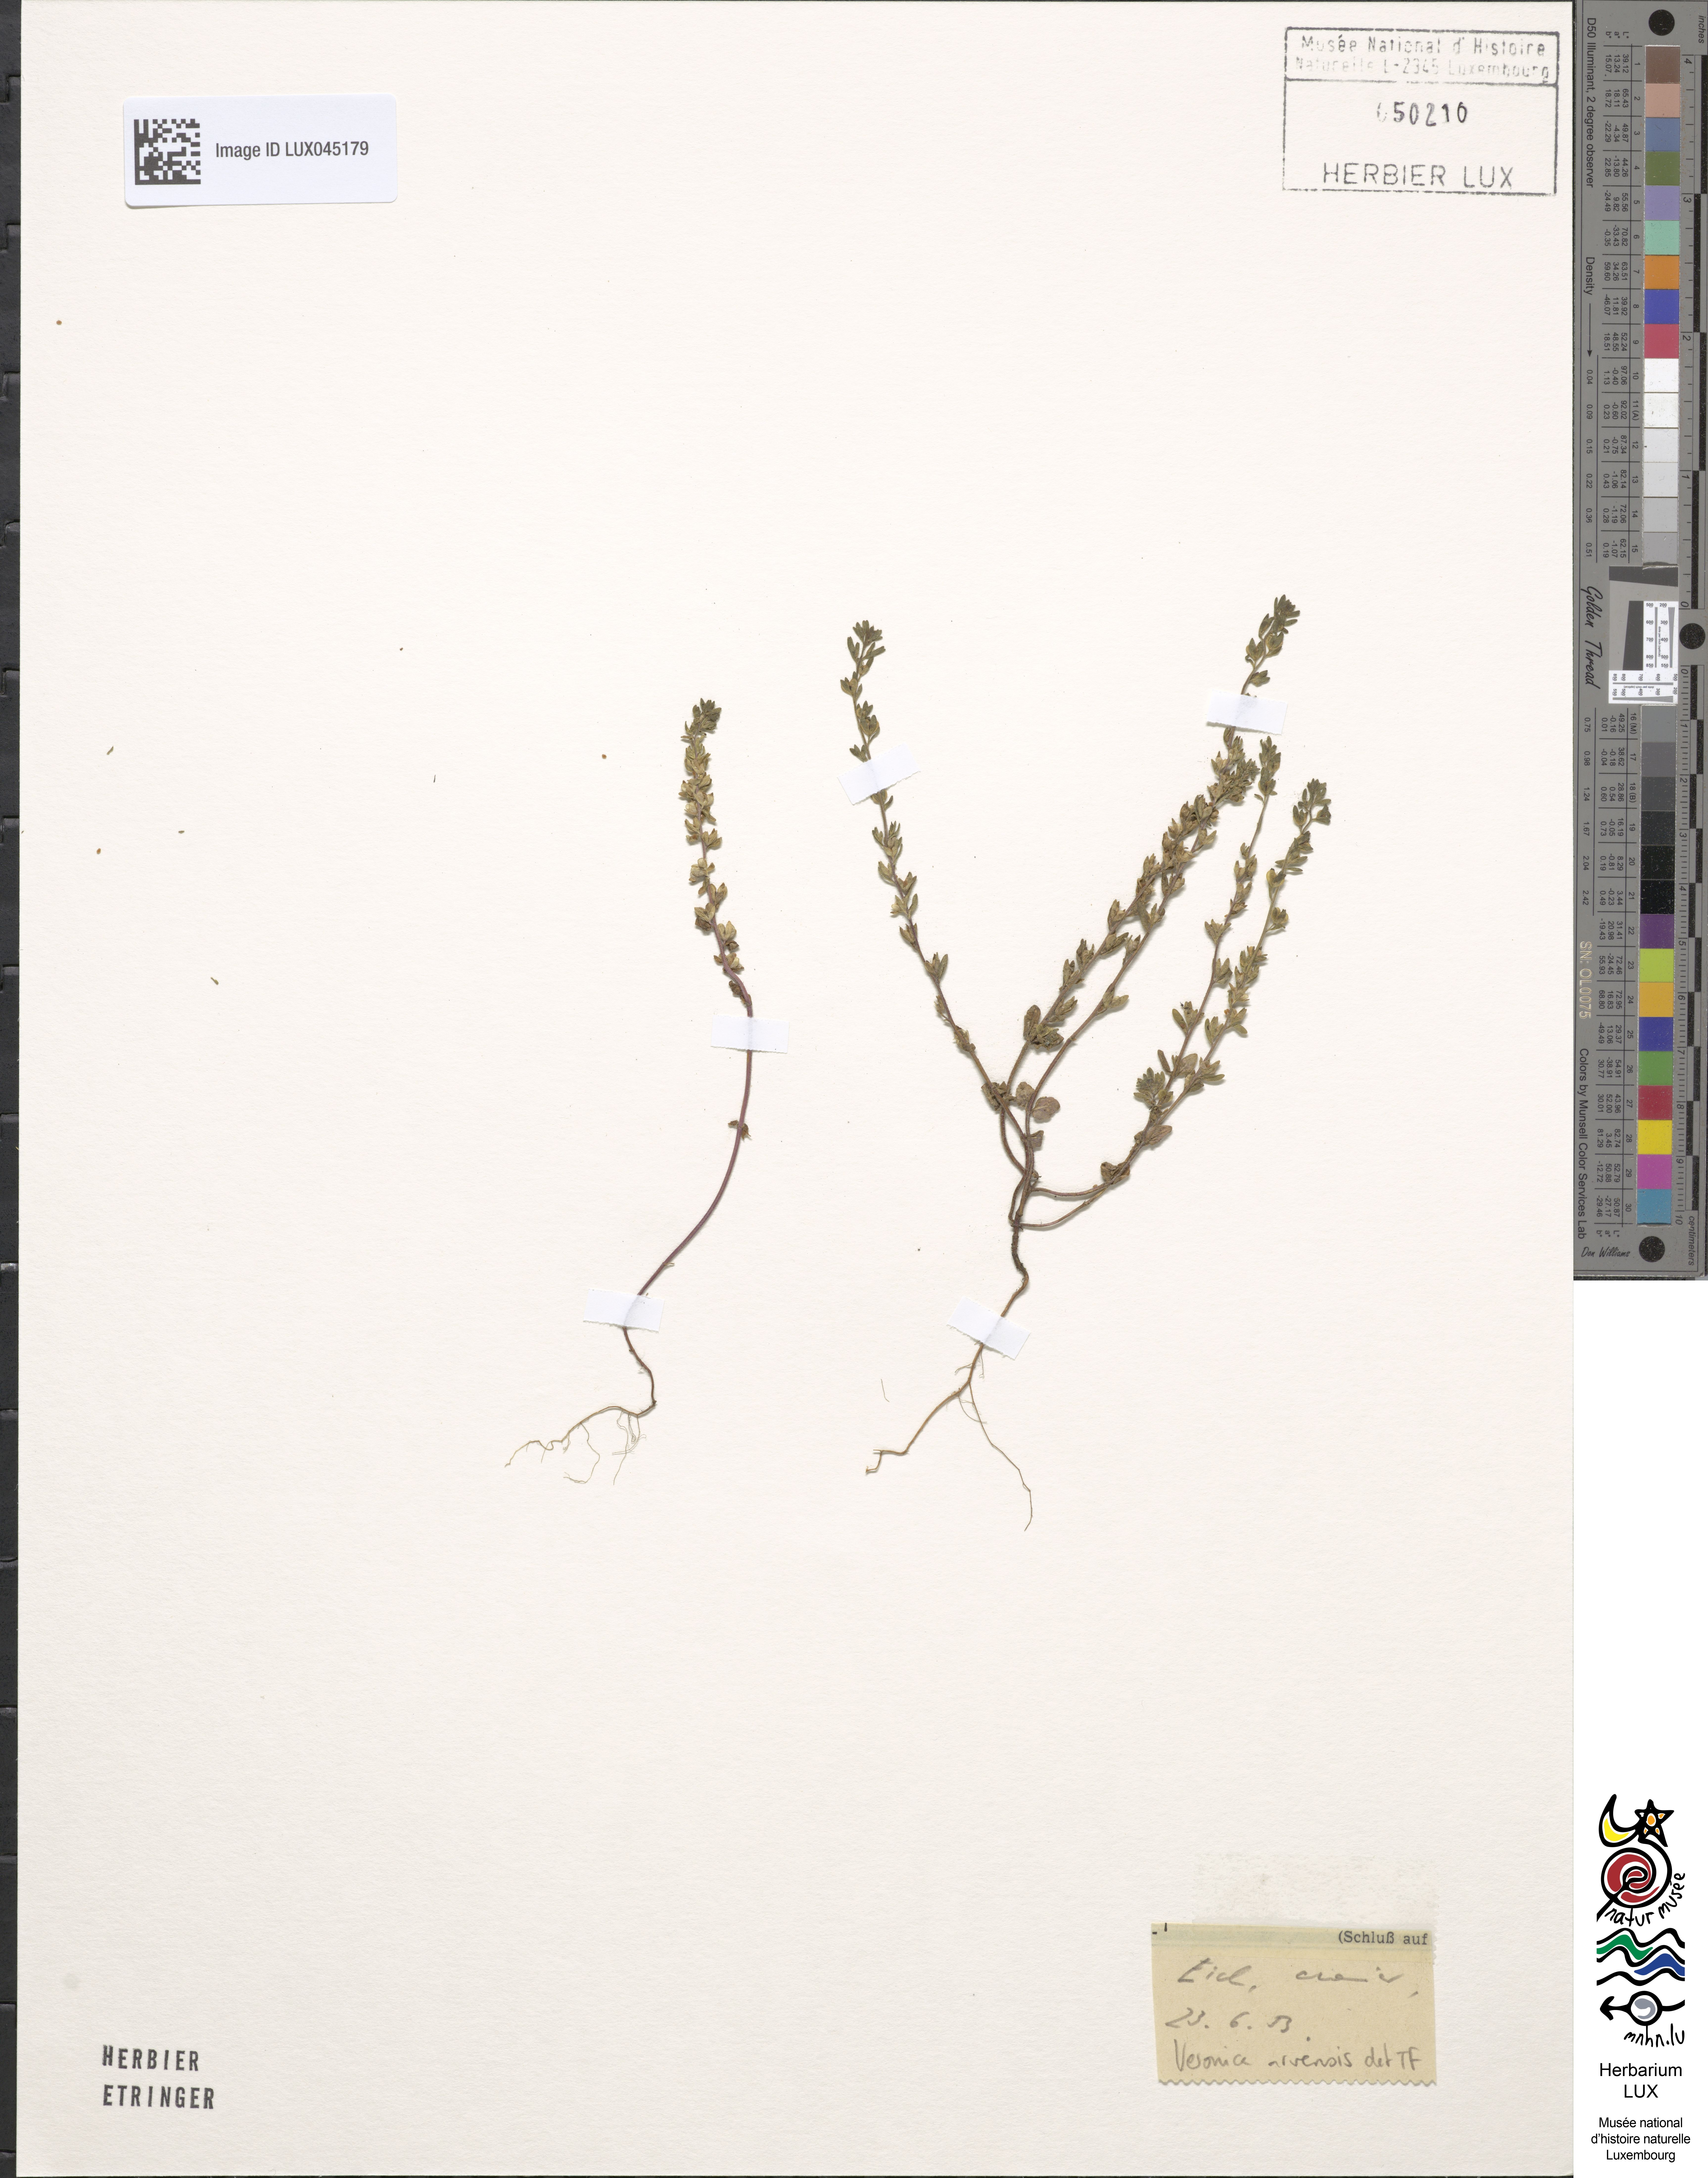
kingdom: Plantae
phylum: Tracheophyta
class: Magnoliopsida
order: Lamiales
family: Plantaginaceae
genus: Veronica
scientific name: Veronica arvensis
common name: Corn speedwell
